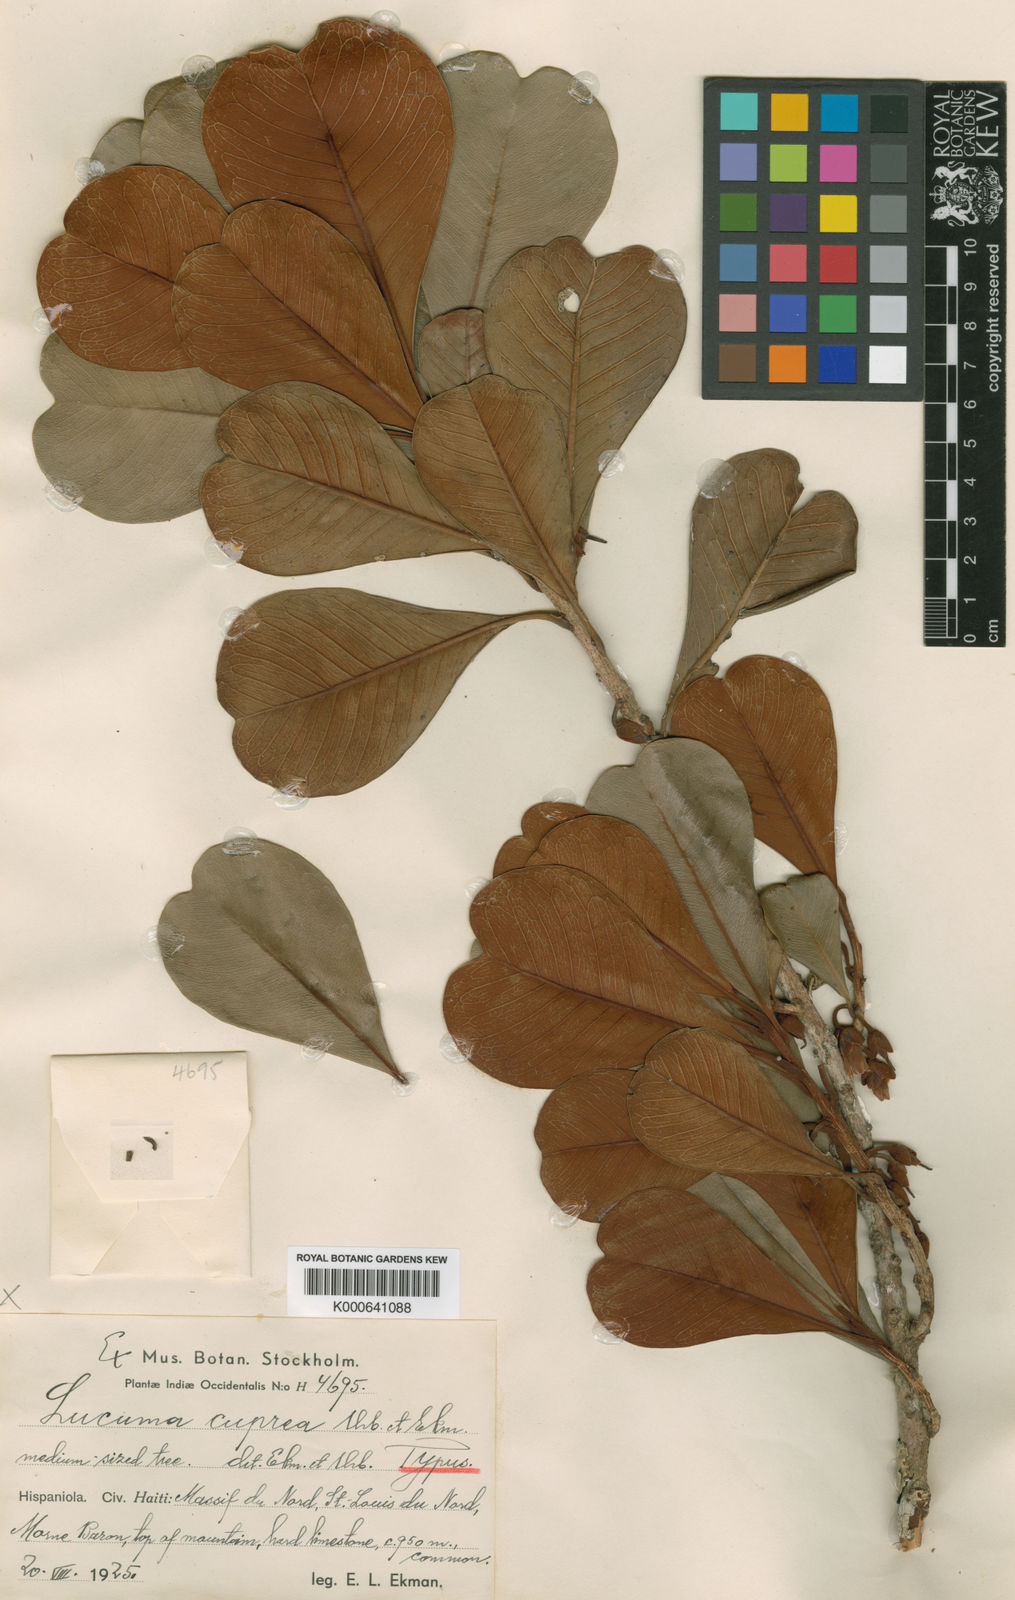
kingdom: Plantae
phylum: Tracheophyta
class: Magnoliopsida
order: Ericales
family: Sapotaceae
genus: Pouteria
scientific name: Pouteria dominigensis
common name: Jacana
